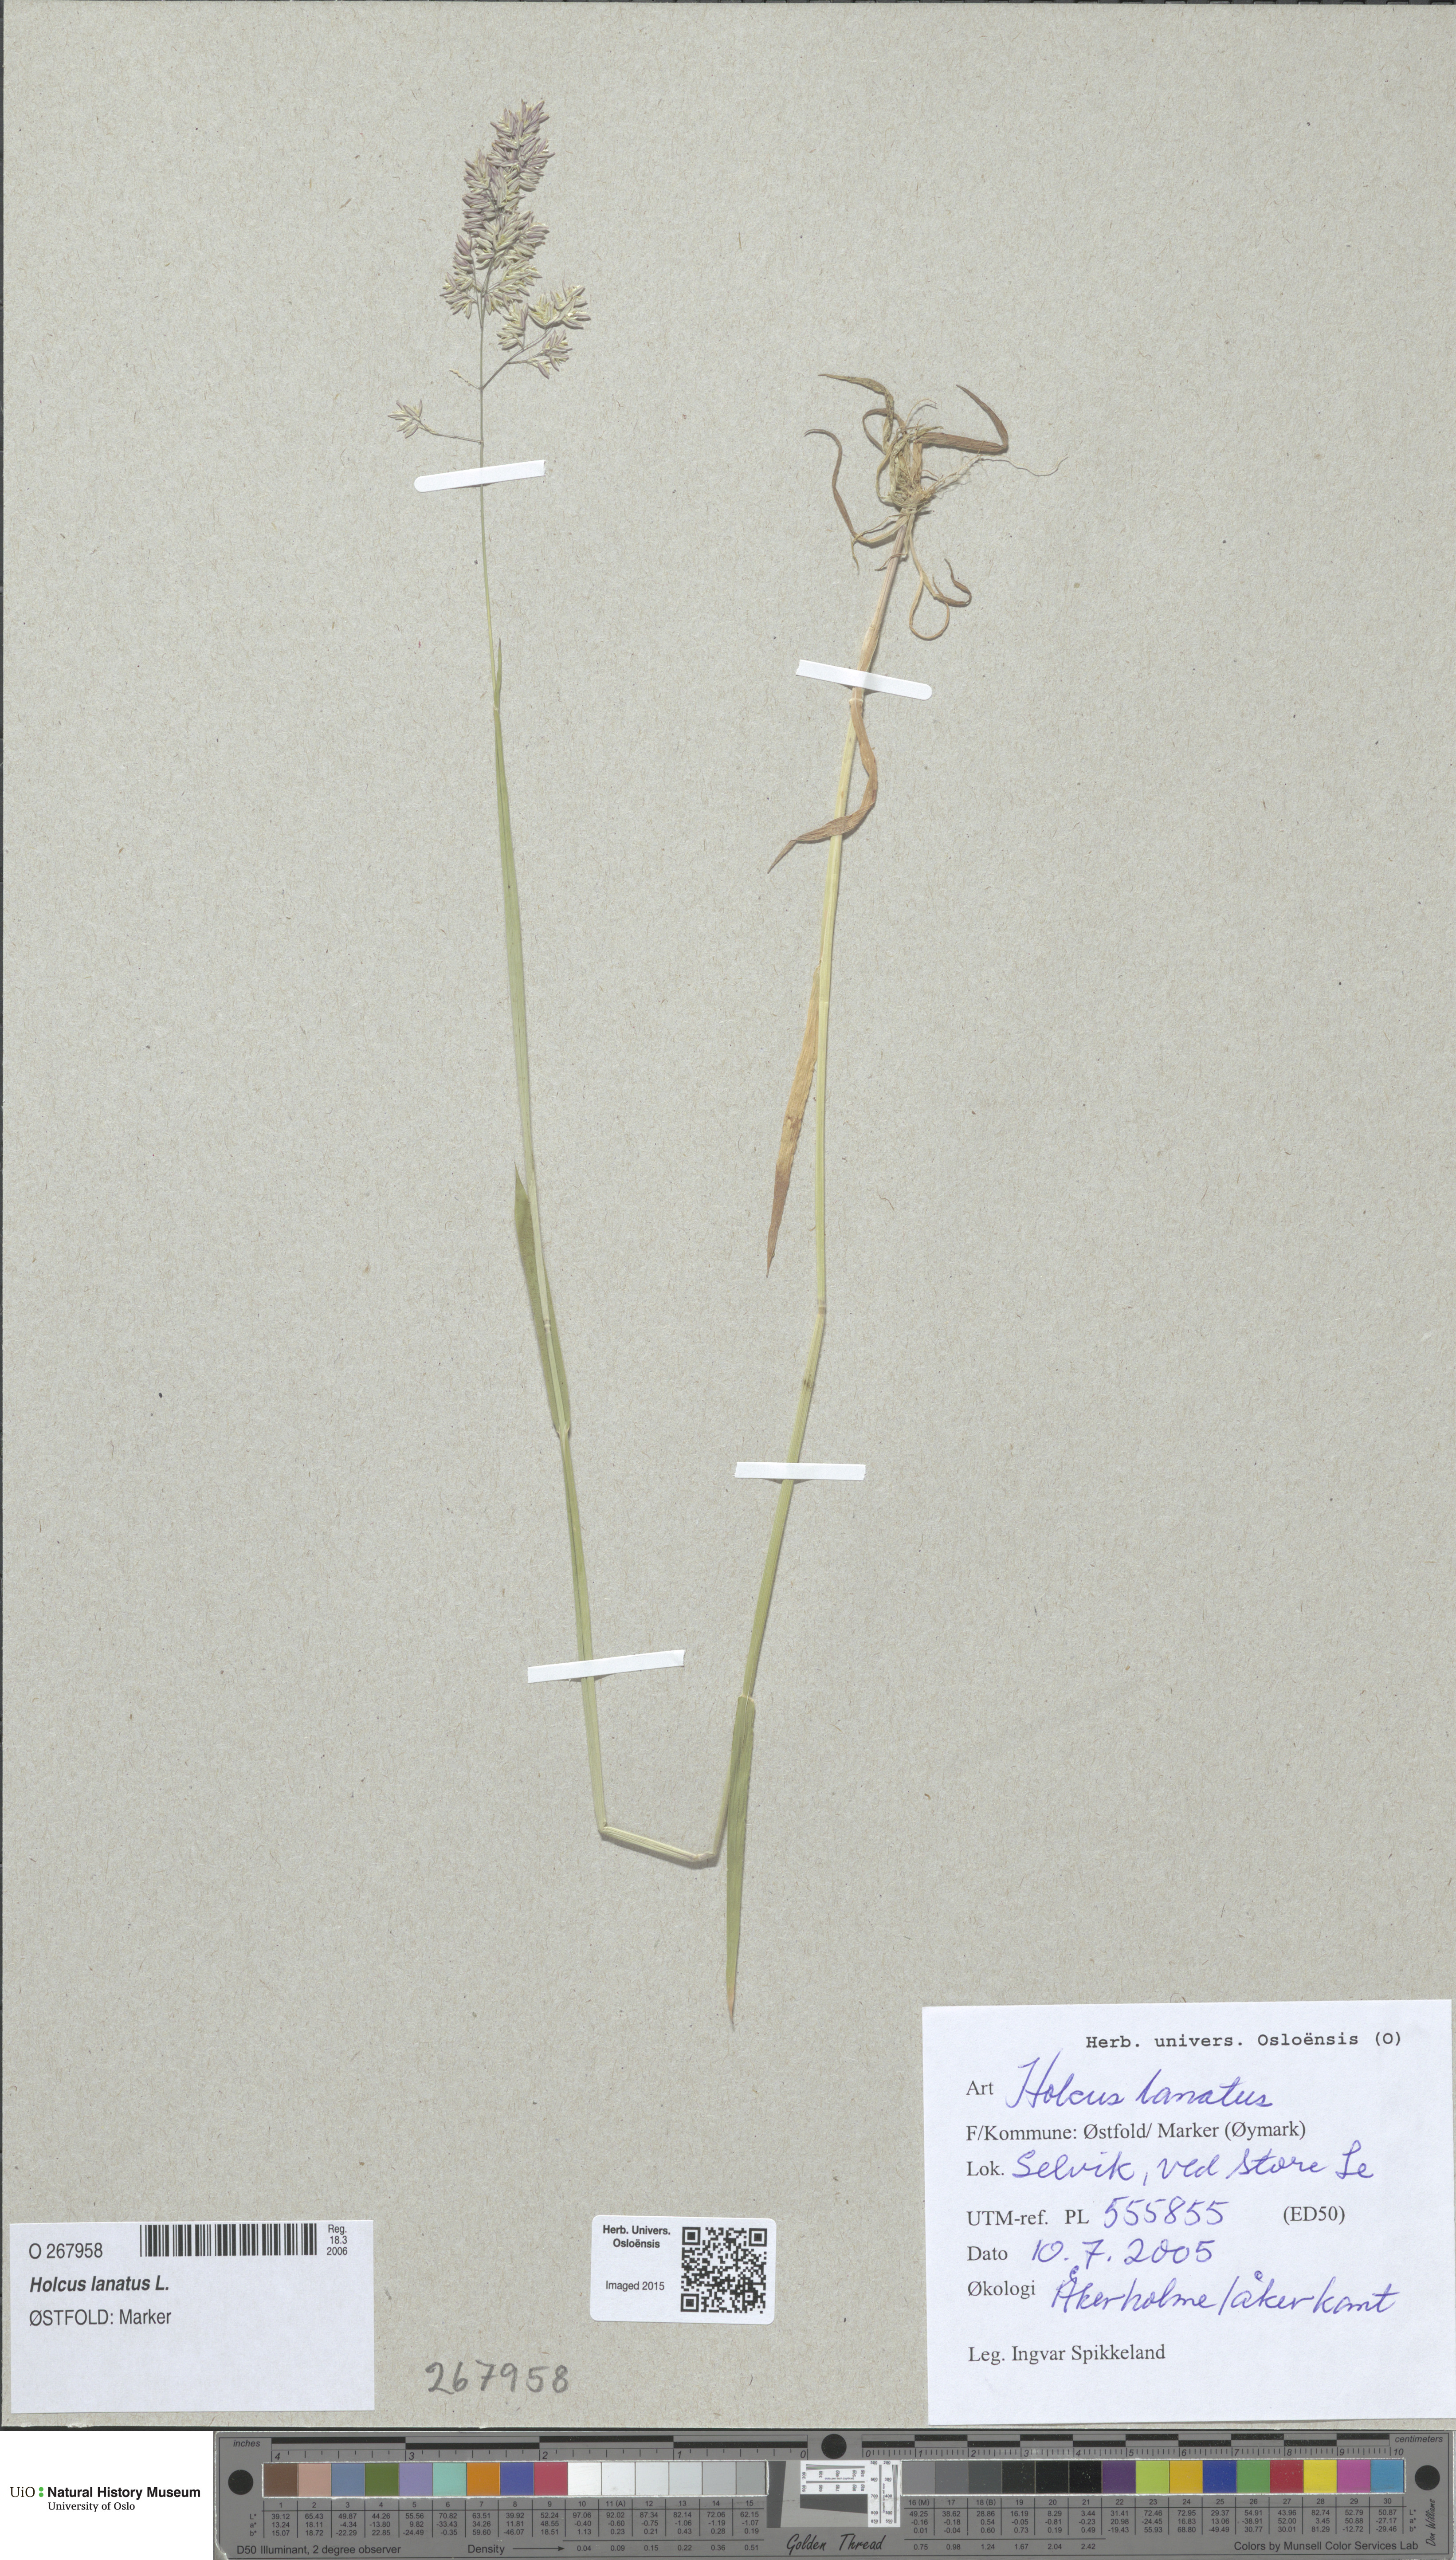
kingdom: Plantae
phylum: Tracheophyta
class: Liliopsida
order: Poales
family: Poaceae
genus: Holcus
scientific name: Holcus lanatus
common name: Yorkshire-fog
